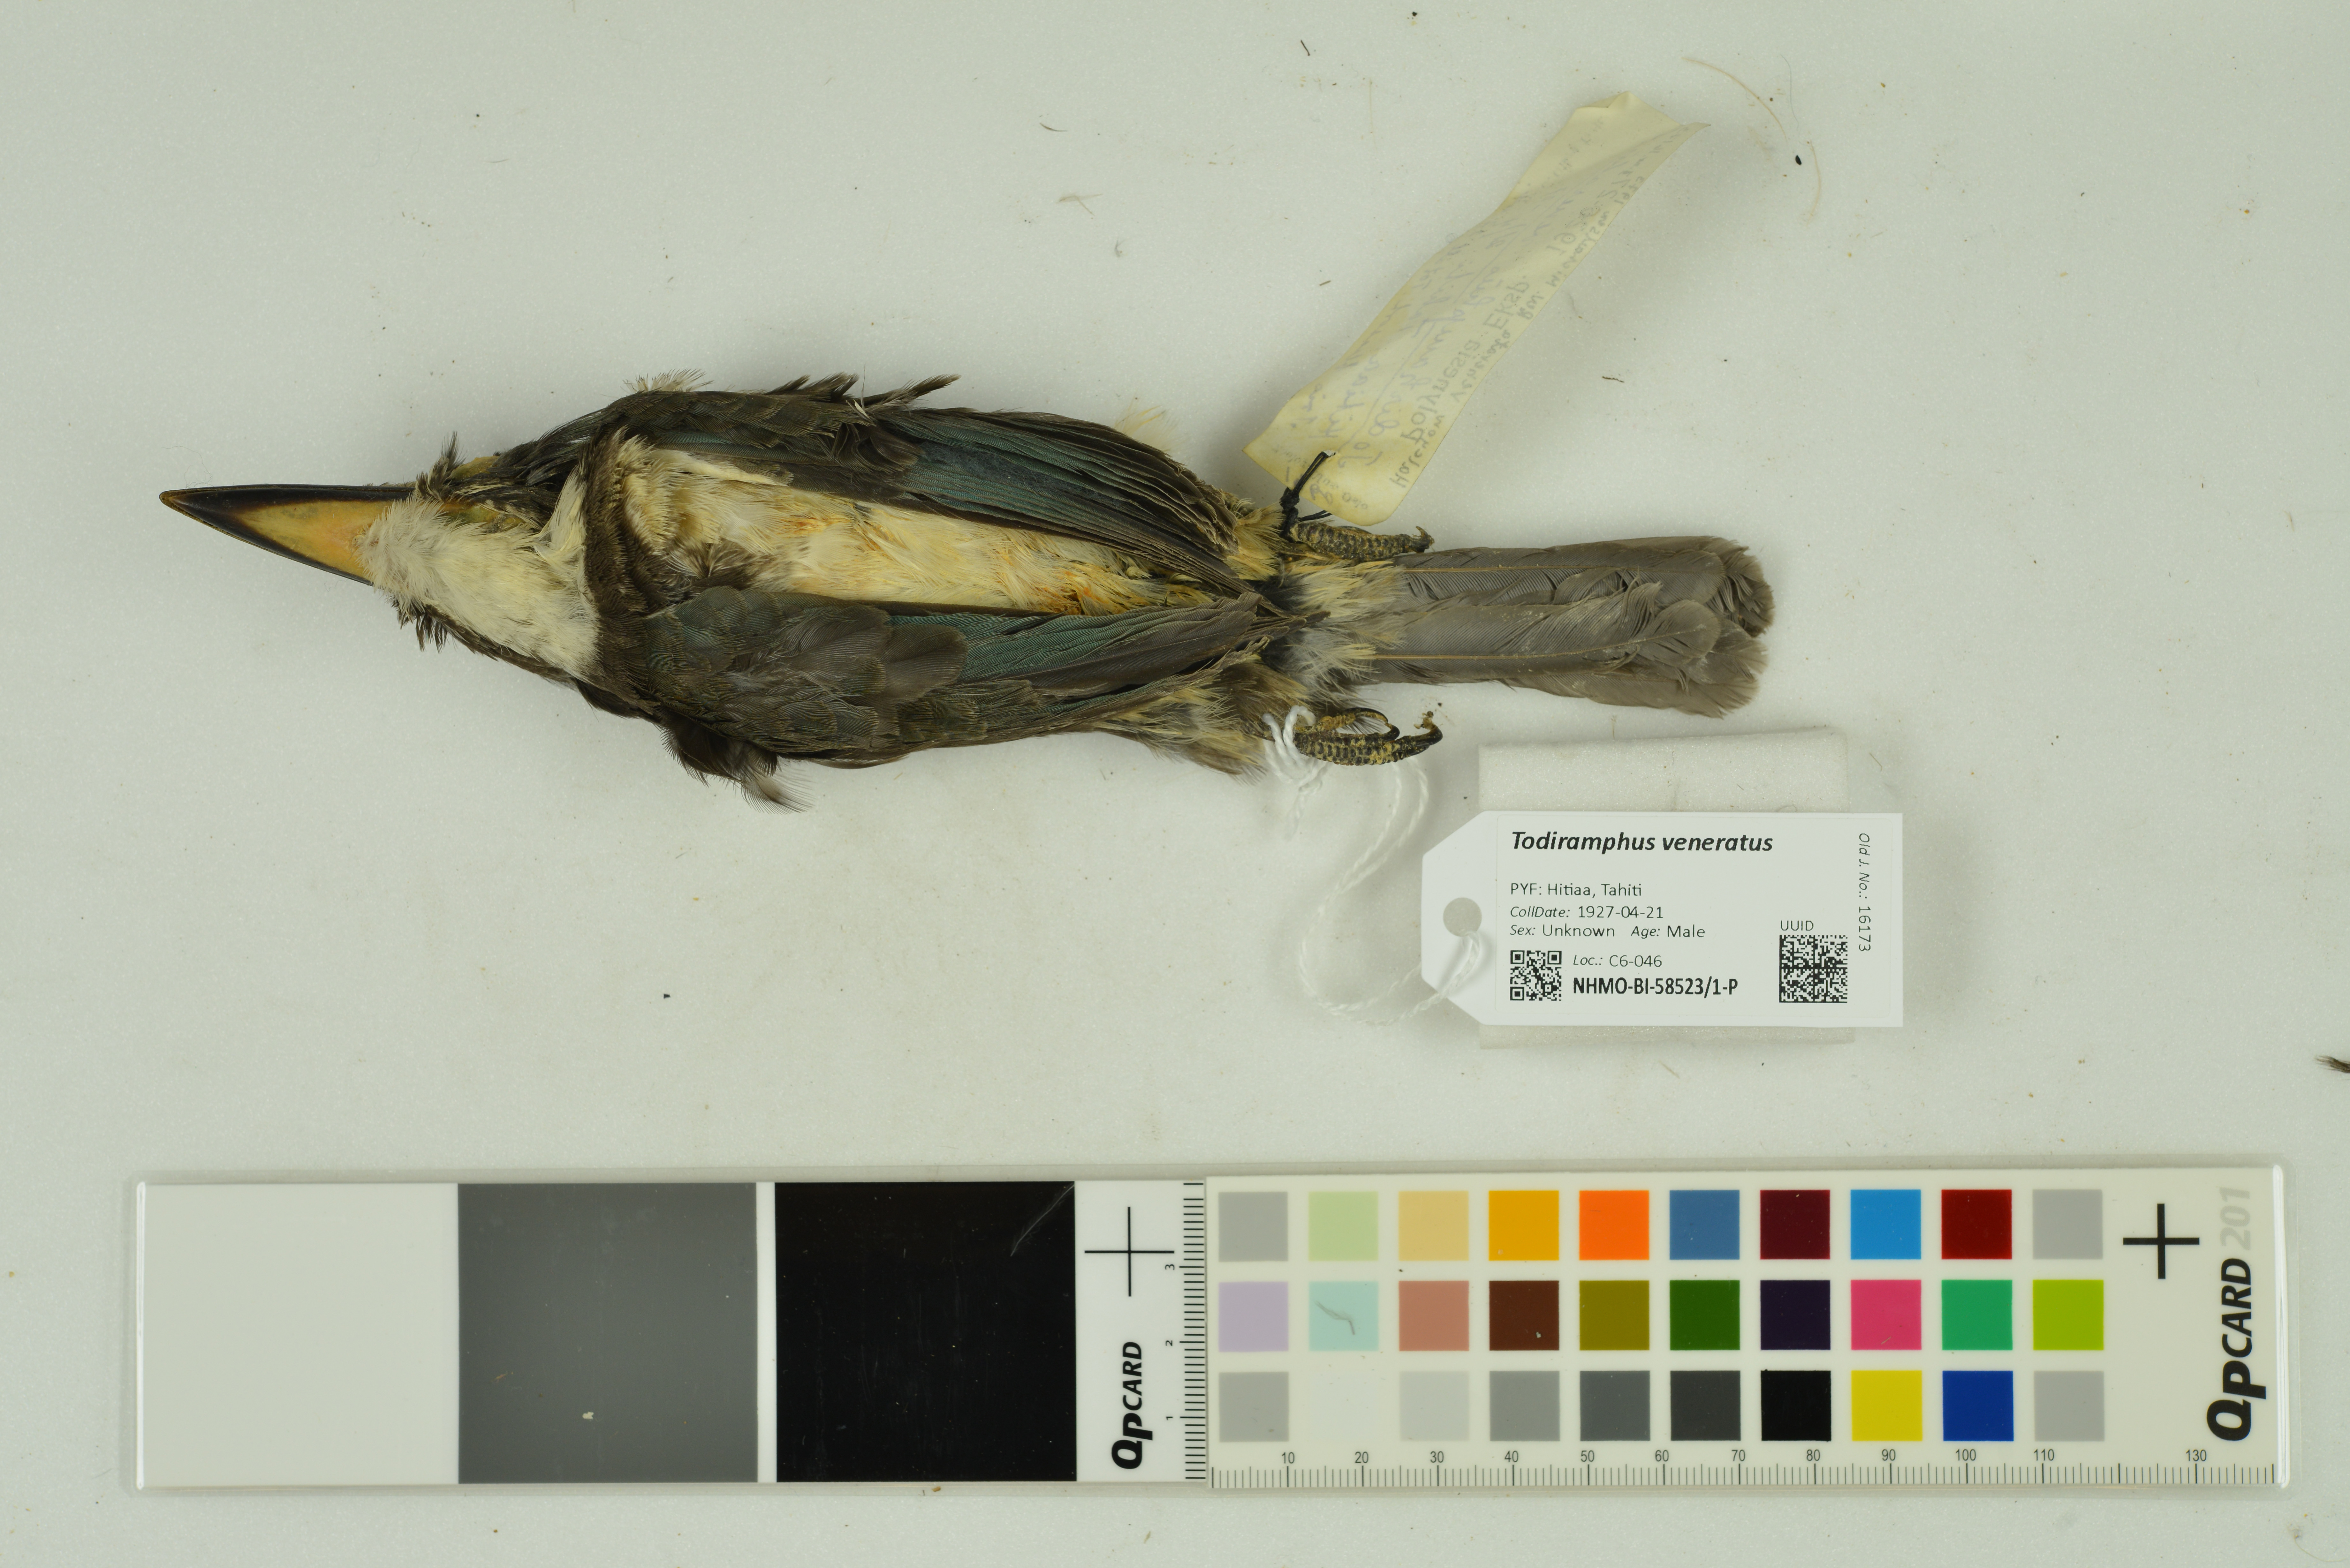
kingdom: Animalia
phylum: Chordata
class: Aves
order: Coraciiformes
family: Alcedinidae
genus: Todiramphus
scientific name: Todiramphus veneratus
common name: Society kingfisher
